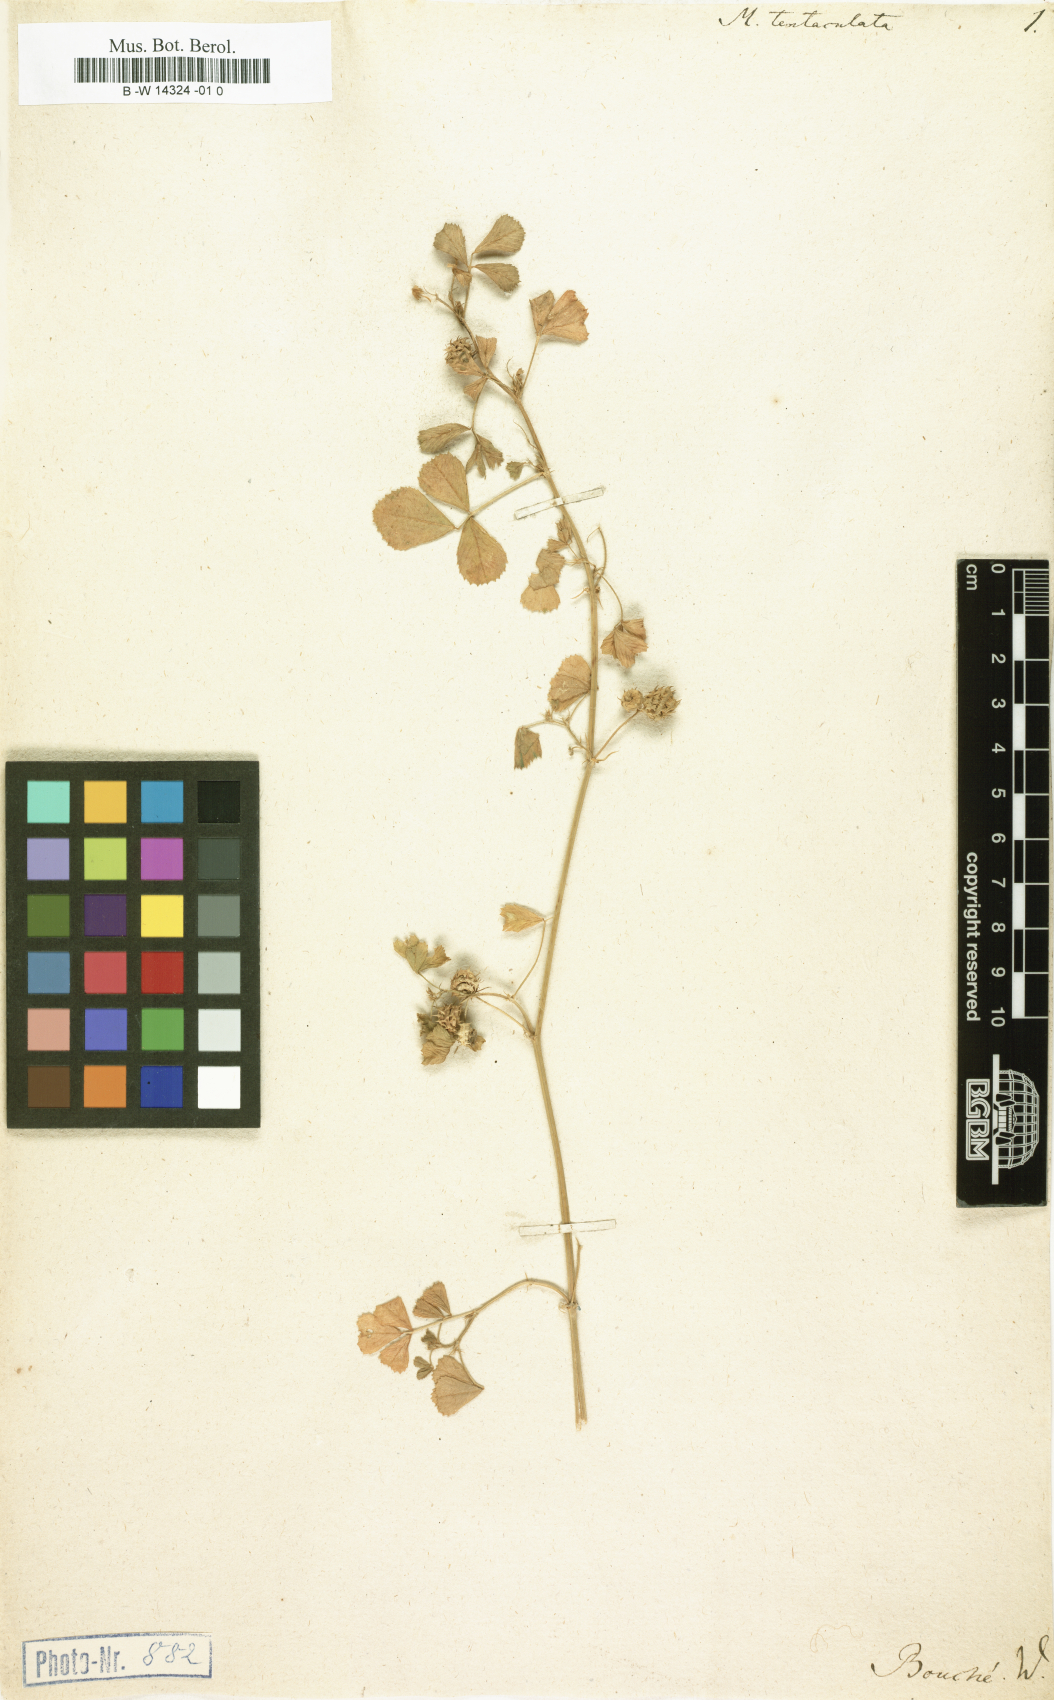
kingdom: Plantae
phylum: Tracheophyta
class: Magnoliopsida
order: Fabales
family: Fabaceae
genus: Medicago
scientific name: Medicago truncatula
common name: Strong-spined medick
